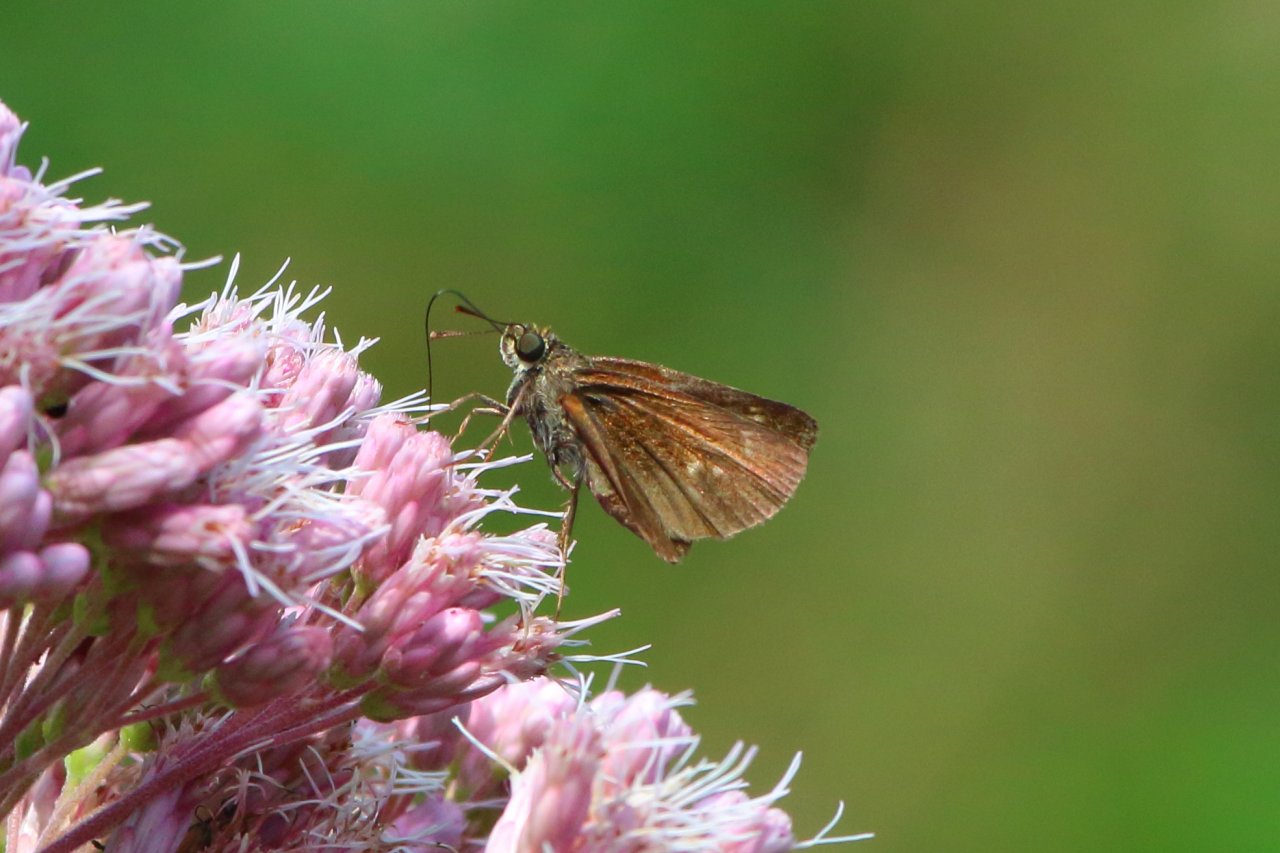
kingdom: Animalia
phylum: Arthropoda
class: Insecta
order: Lepidoptera
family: Hesperiidae
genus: Euphyes
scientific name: Euphyes vestris
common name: Dun Skipper
